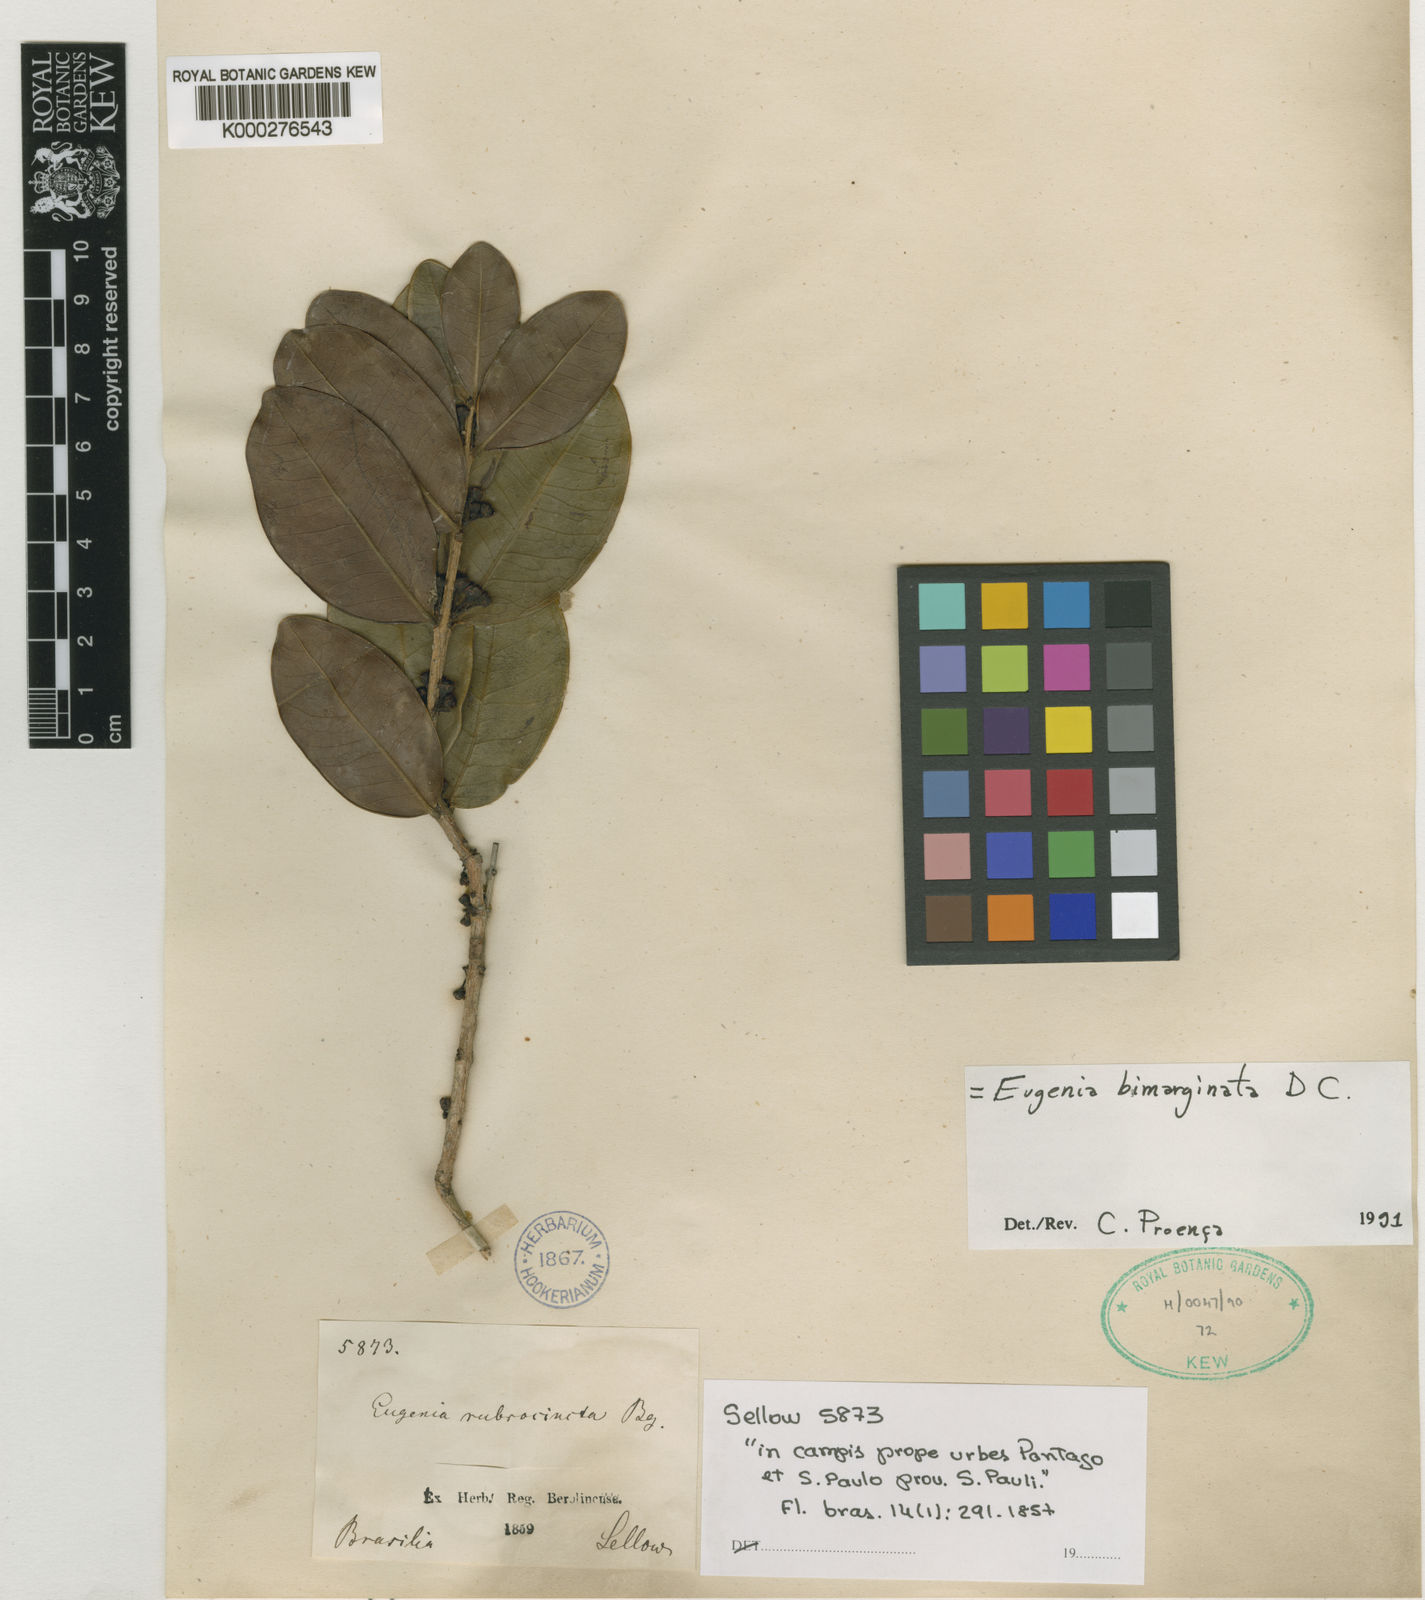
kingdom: Plantae
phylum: Tracheophyta
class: Magnoliopsida
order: Myrtales
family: Myrtaceae
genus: Eugenia
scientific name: Eugenia bimarginata
